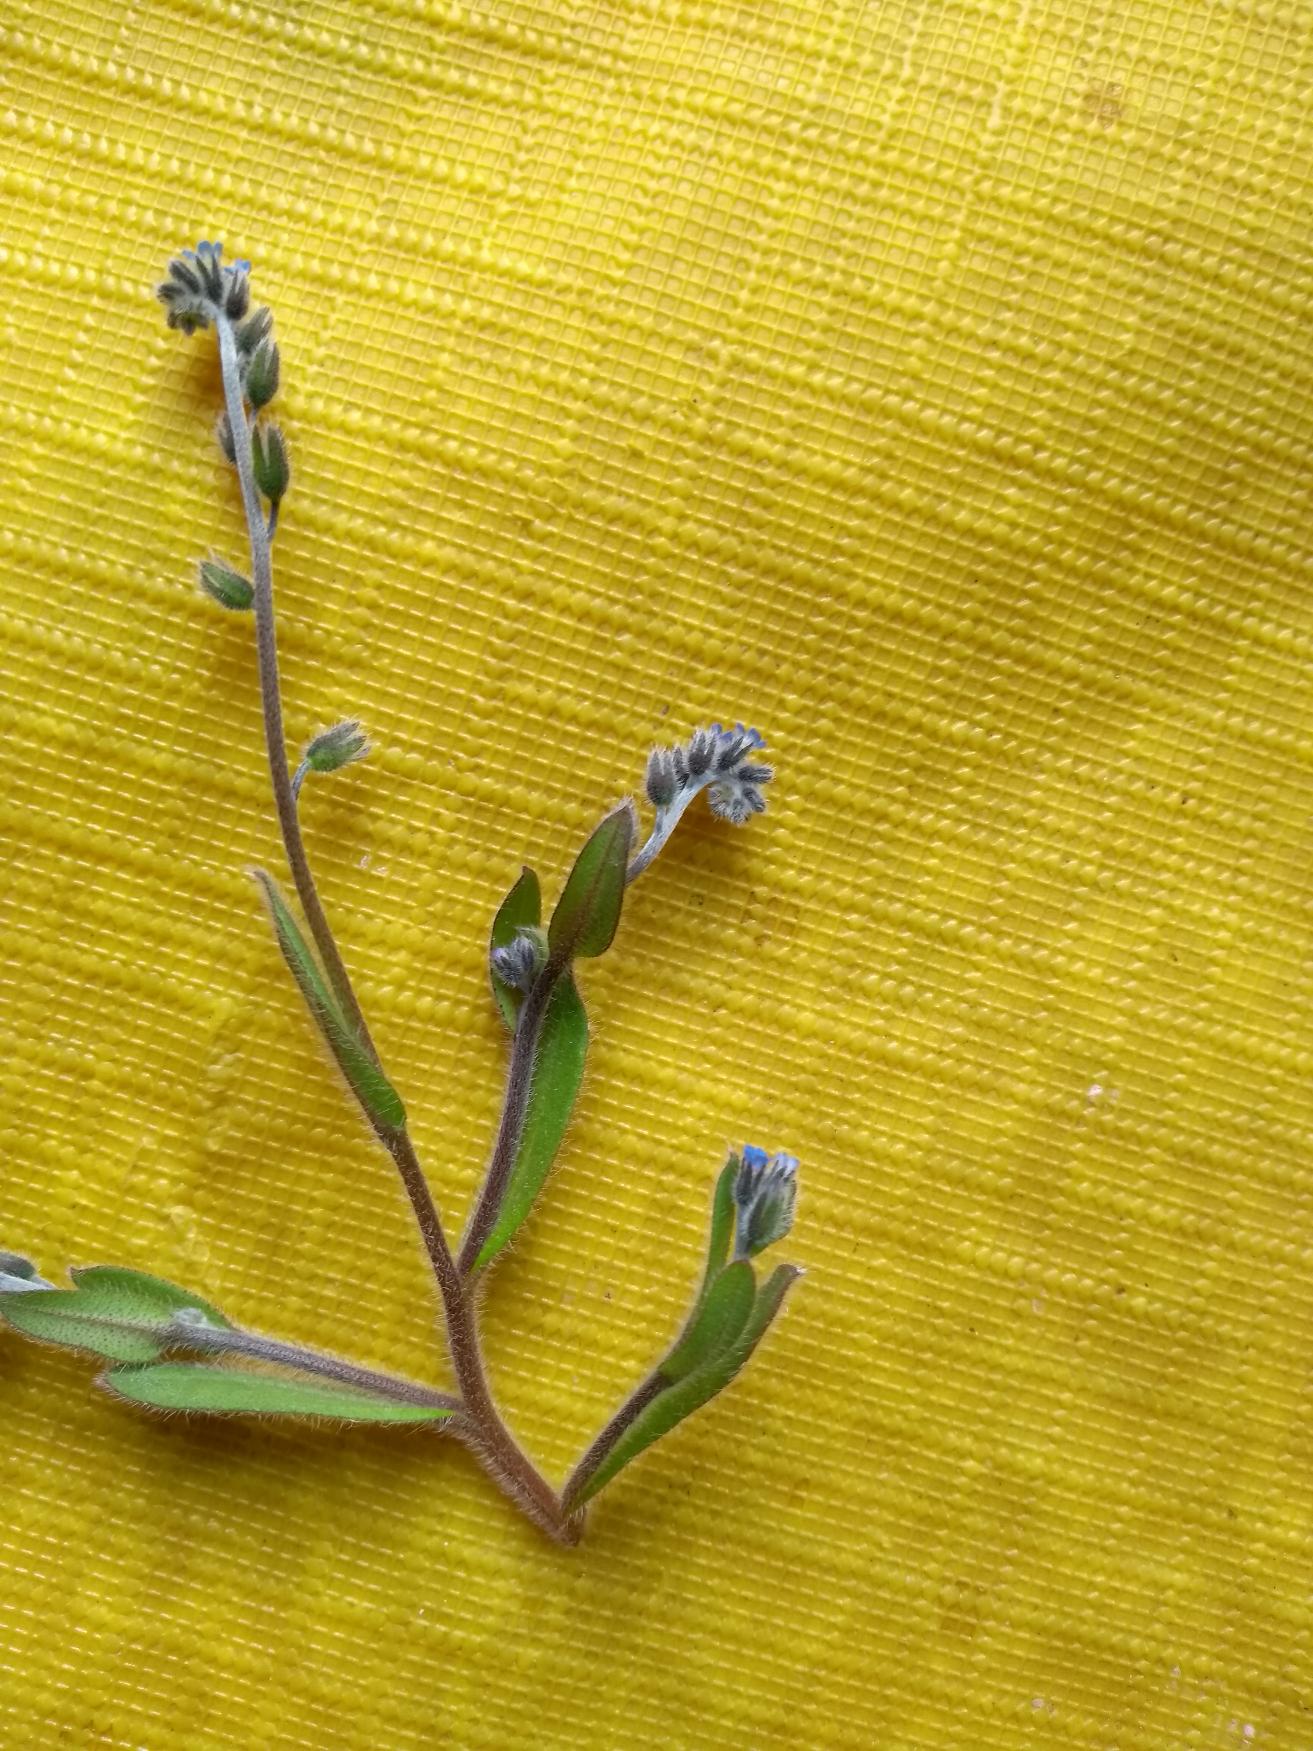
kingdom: Plantae
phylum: Tracheophyta
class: Magnoliopsida
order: Boraginales
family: Boraginaceae
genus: Myosotis
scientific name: Myosotis ramosissima
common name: Bakke-forglemmigej
